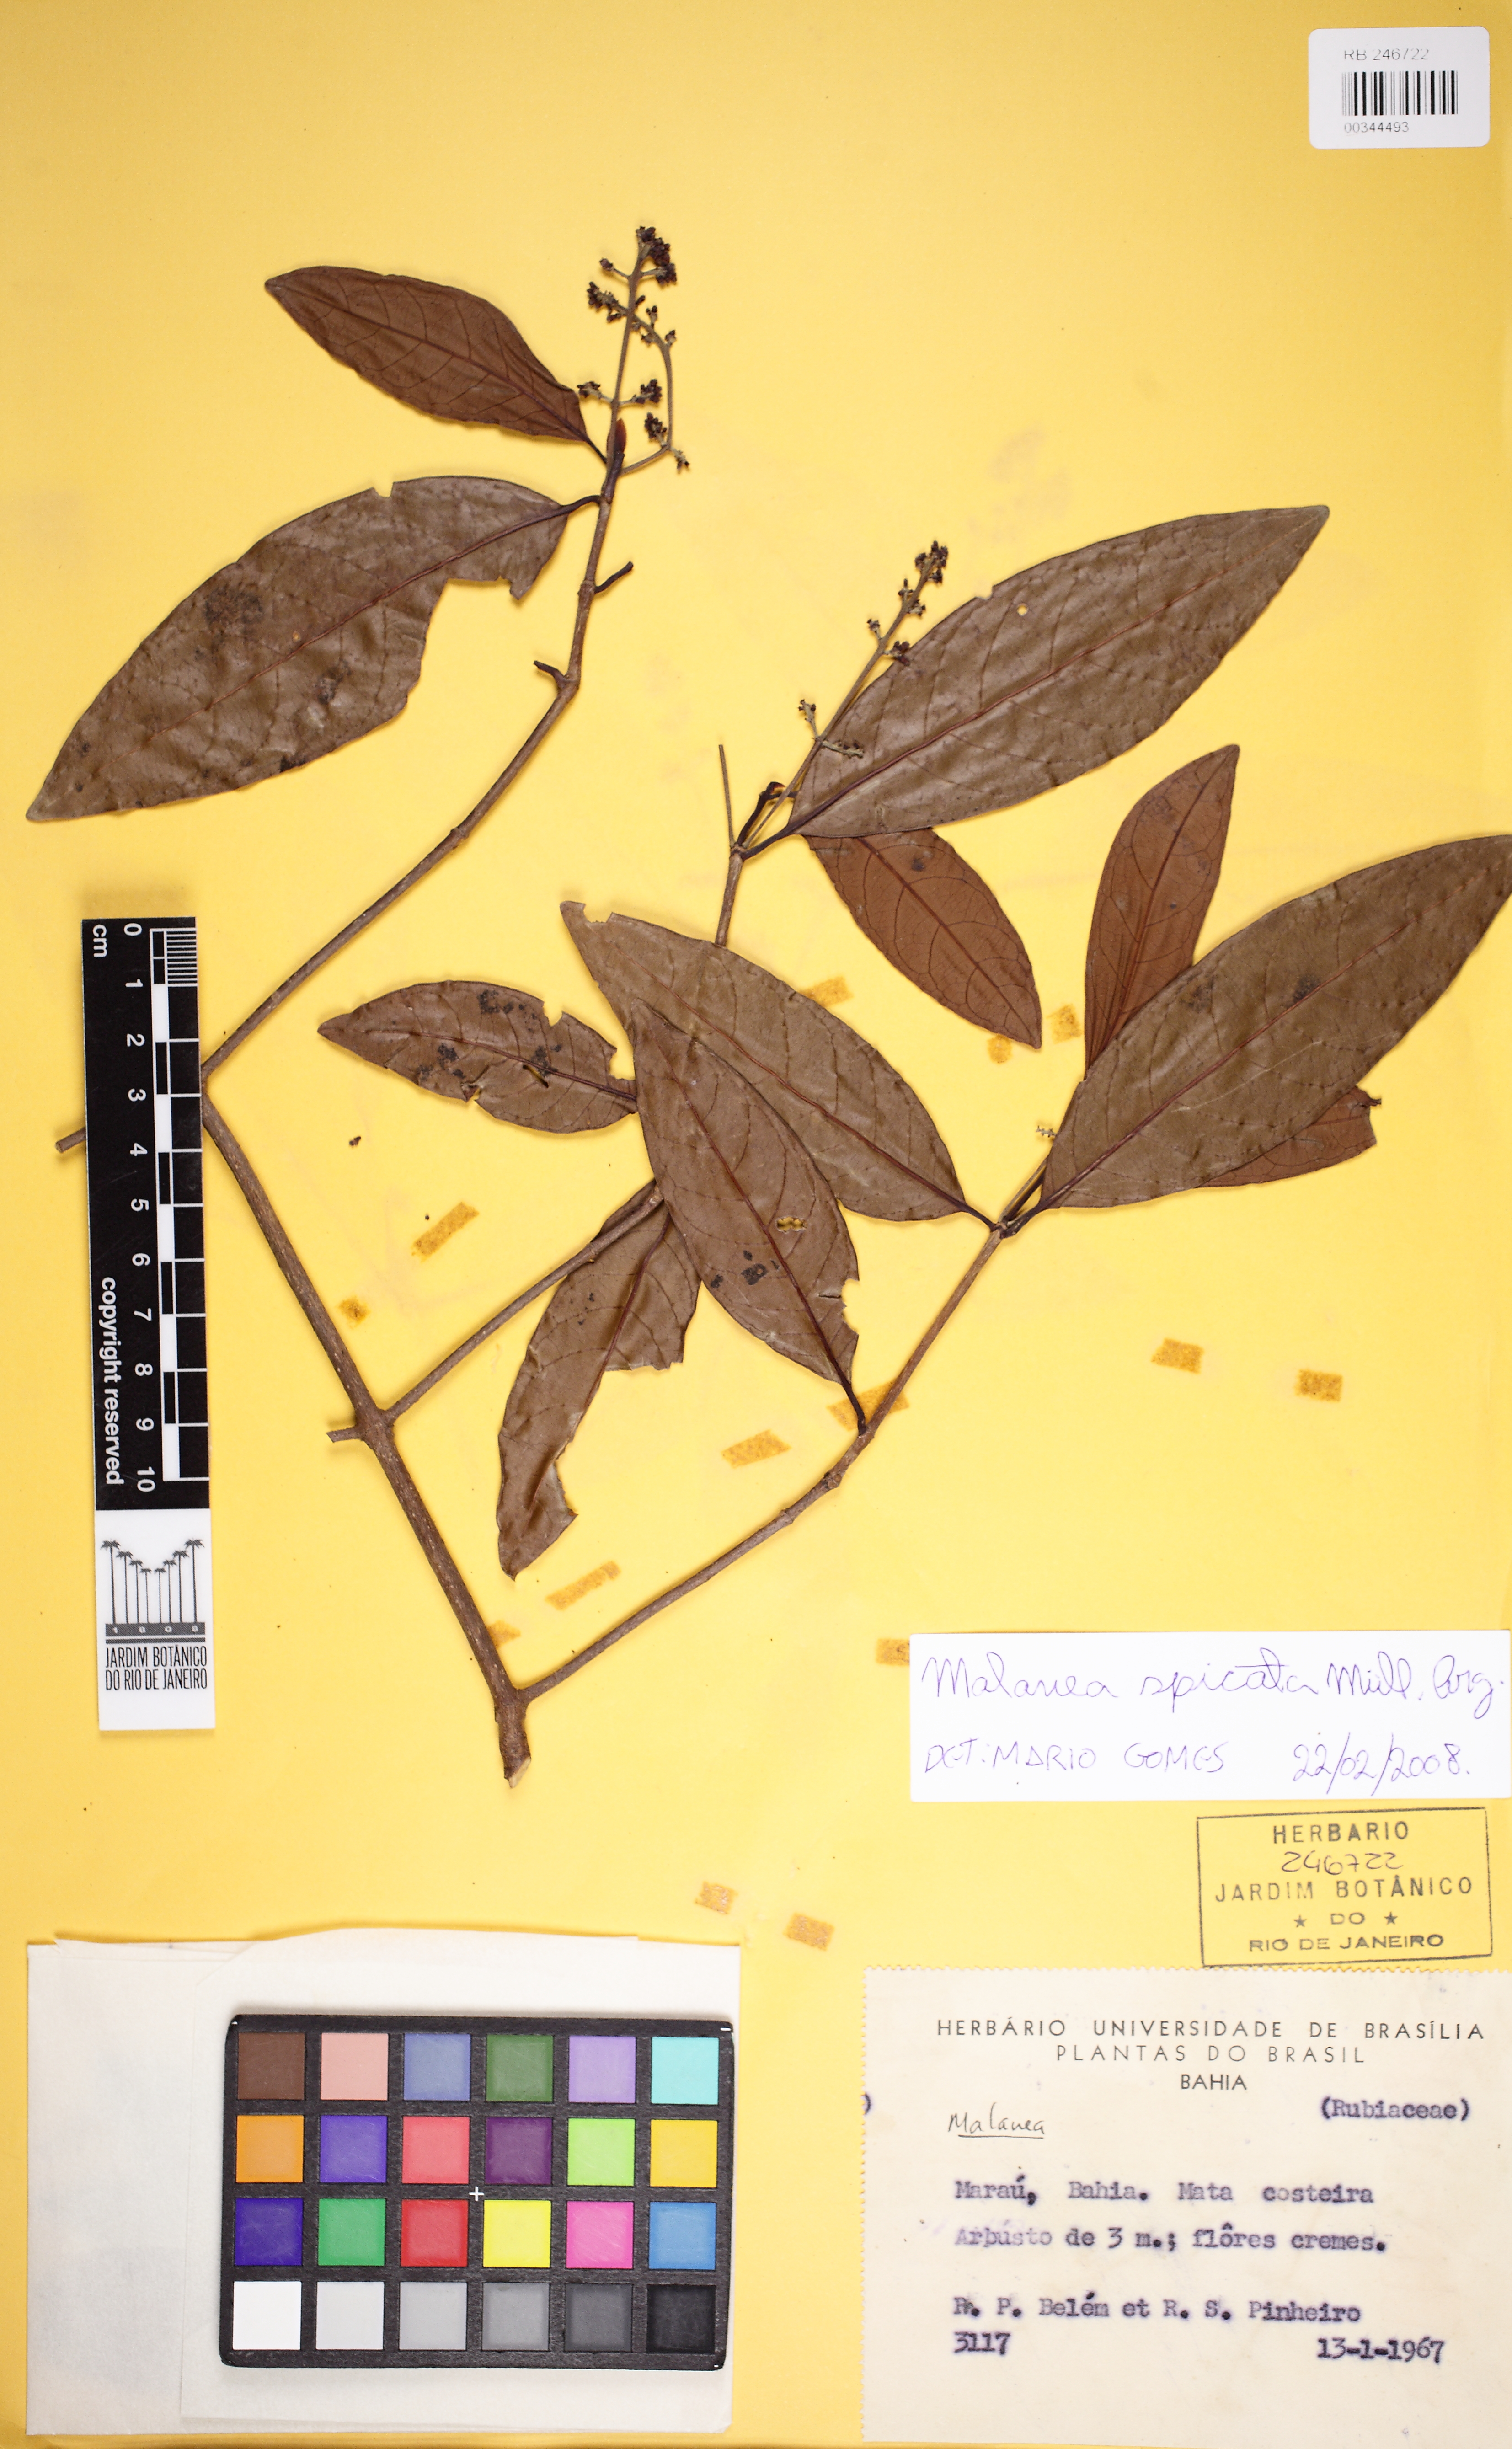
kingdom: Plantae
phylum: Tracheophyta
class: Magnoliopsida
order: Gentianales
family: Rubiaceae
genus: Malanea
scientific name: Malanea spicata
